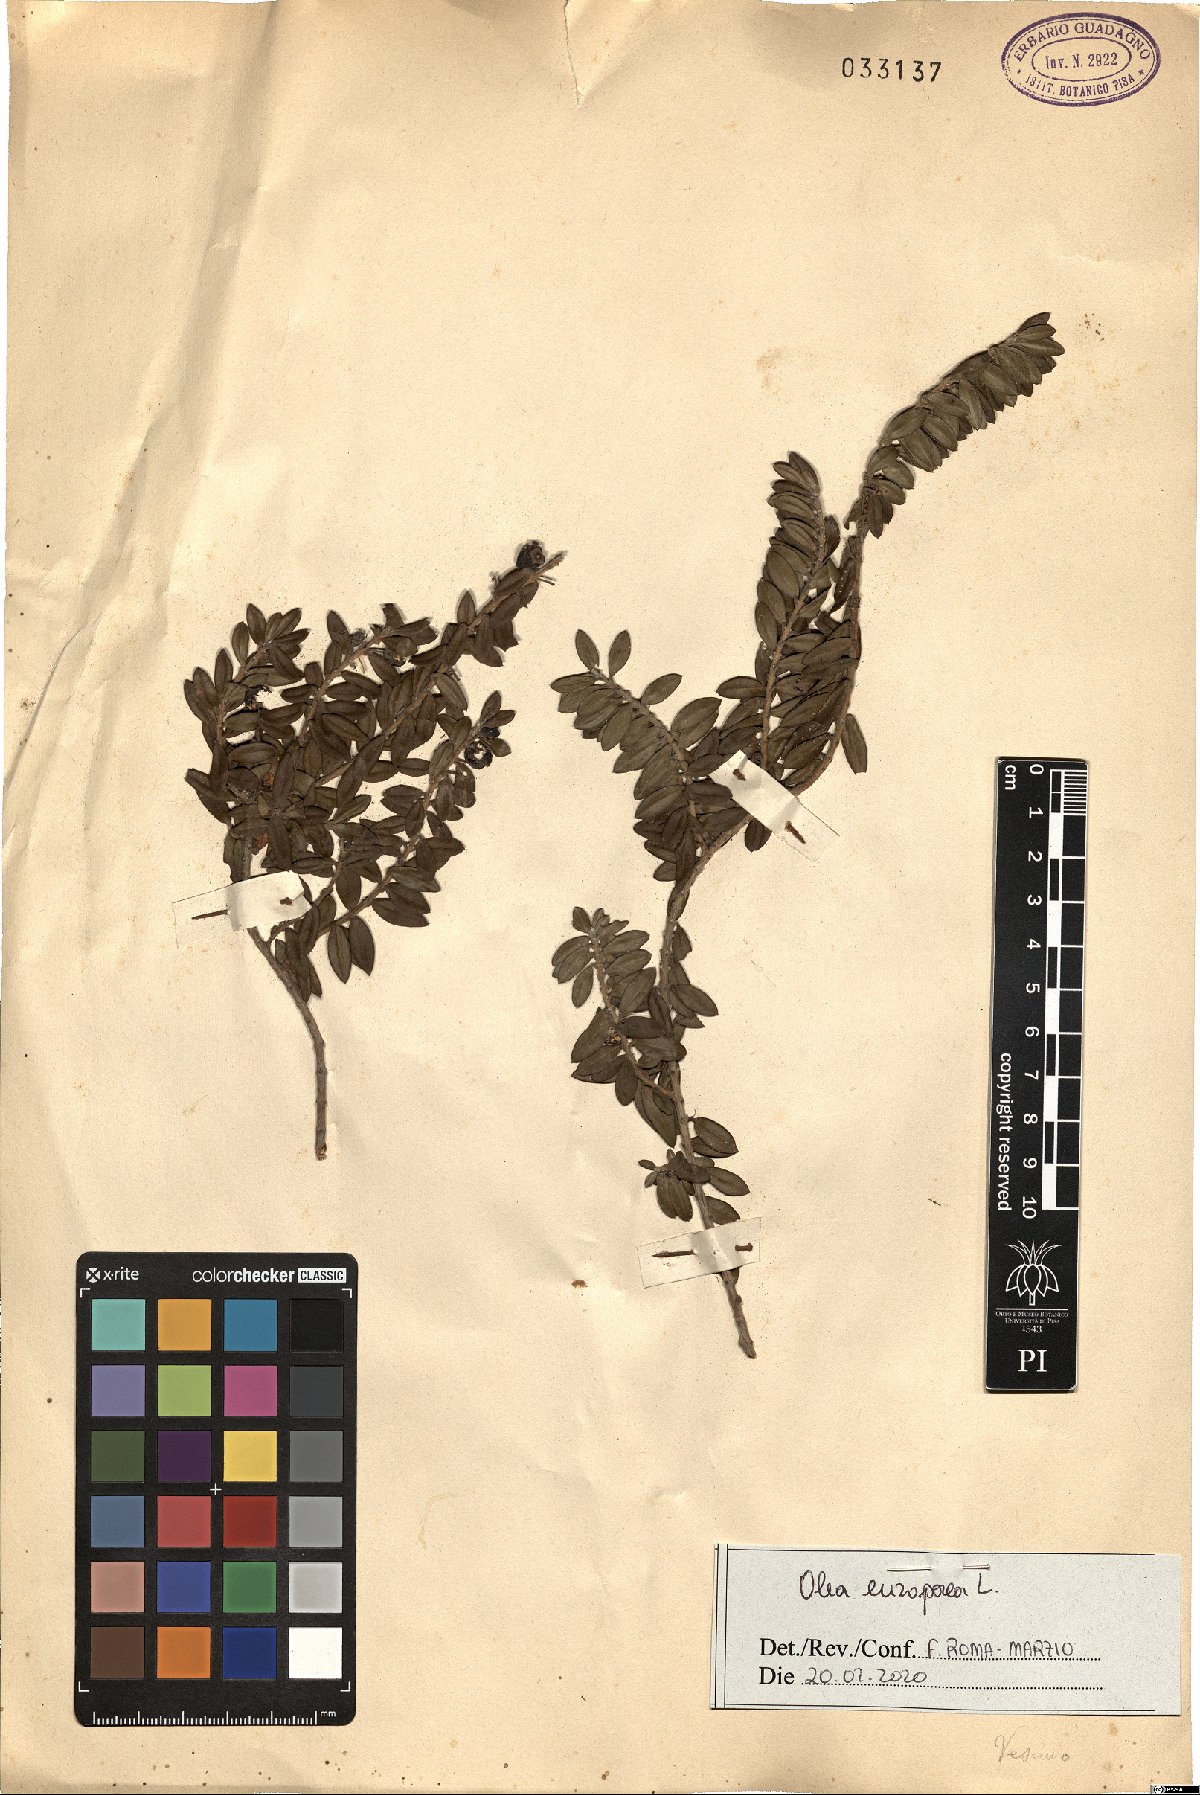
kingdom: Plantae
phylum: Tracheophyta
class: Magnoliopsida
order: Lamiales
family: Oleaceae
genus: Olea
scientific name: Olea europaea
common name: Olive
